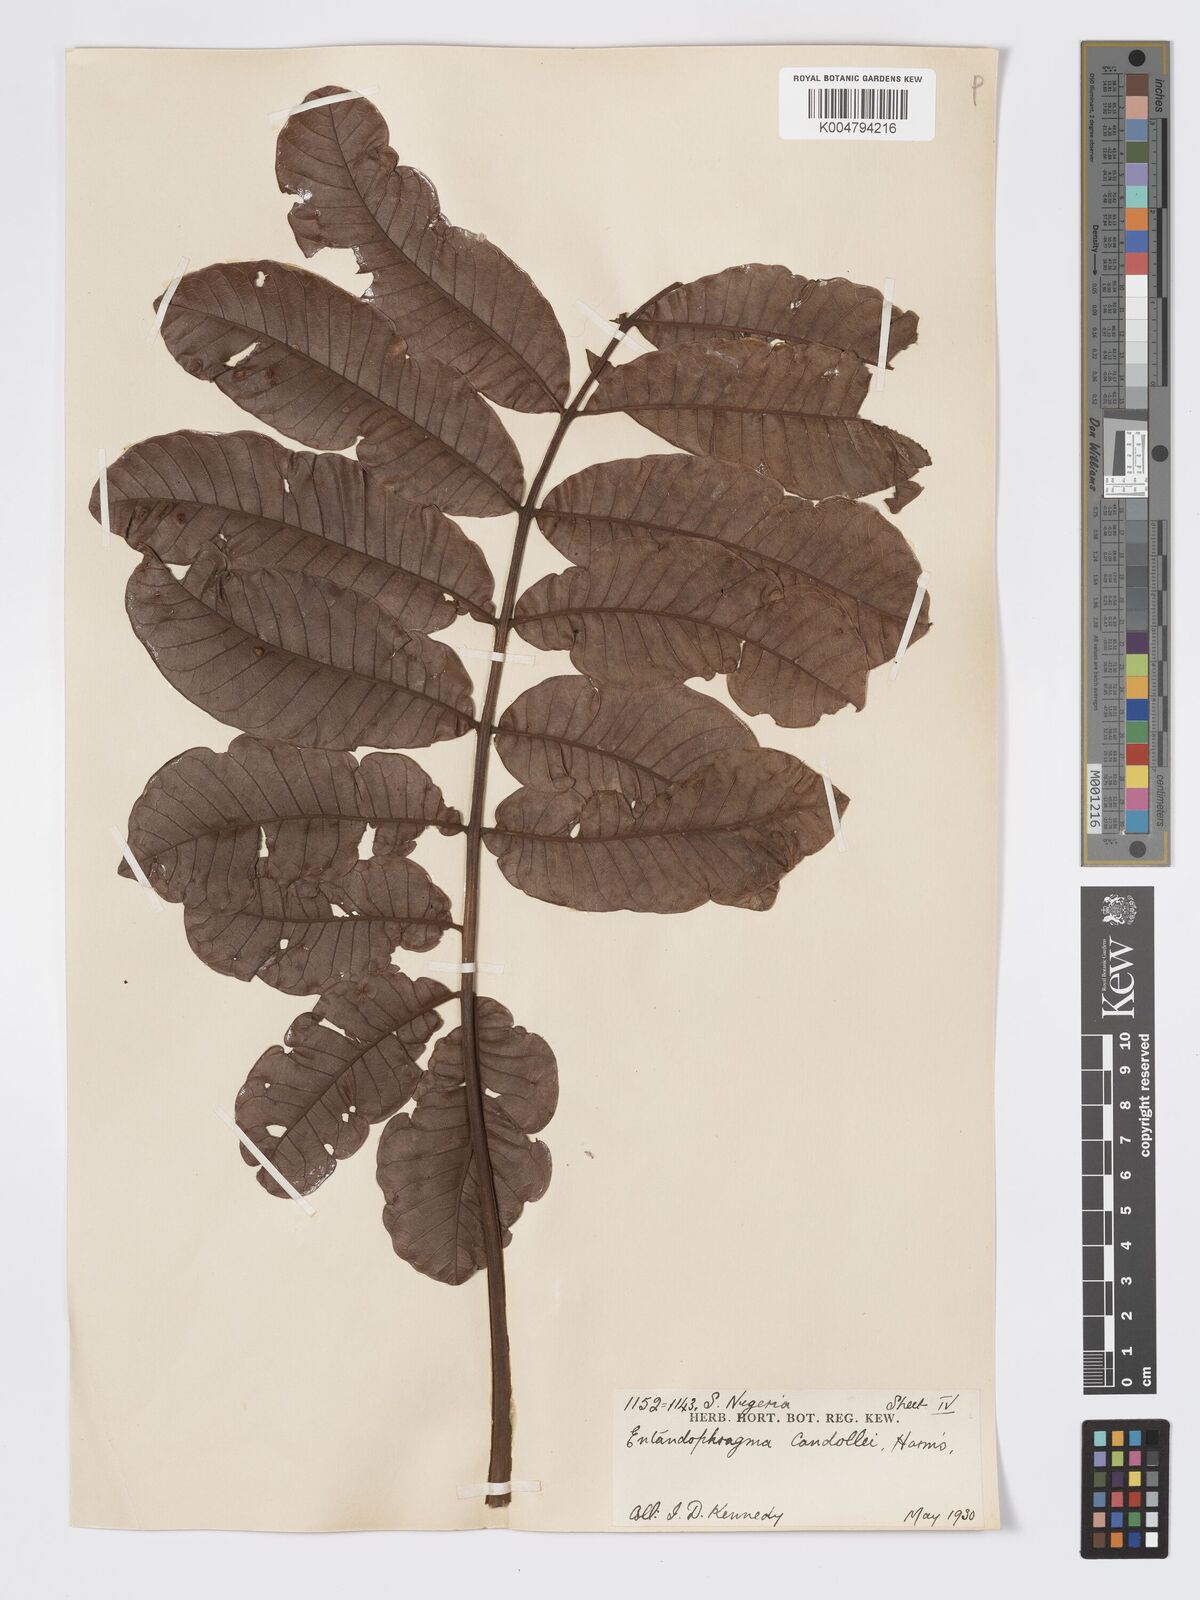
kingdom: Plantae
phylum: Tracheophyta
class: Magnoliopsida
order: Sapindales
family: Meliaceae
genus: Entandrophragma
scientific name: Entandrophragma candollei
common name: Cedar kokoti
